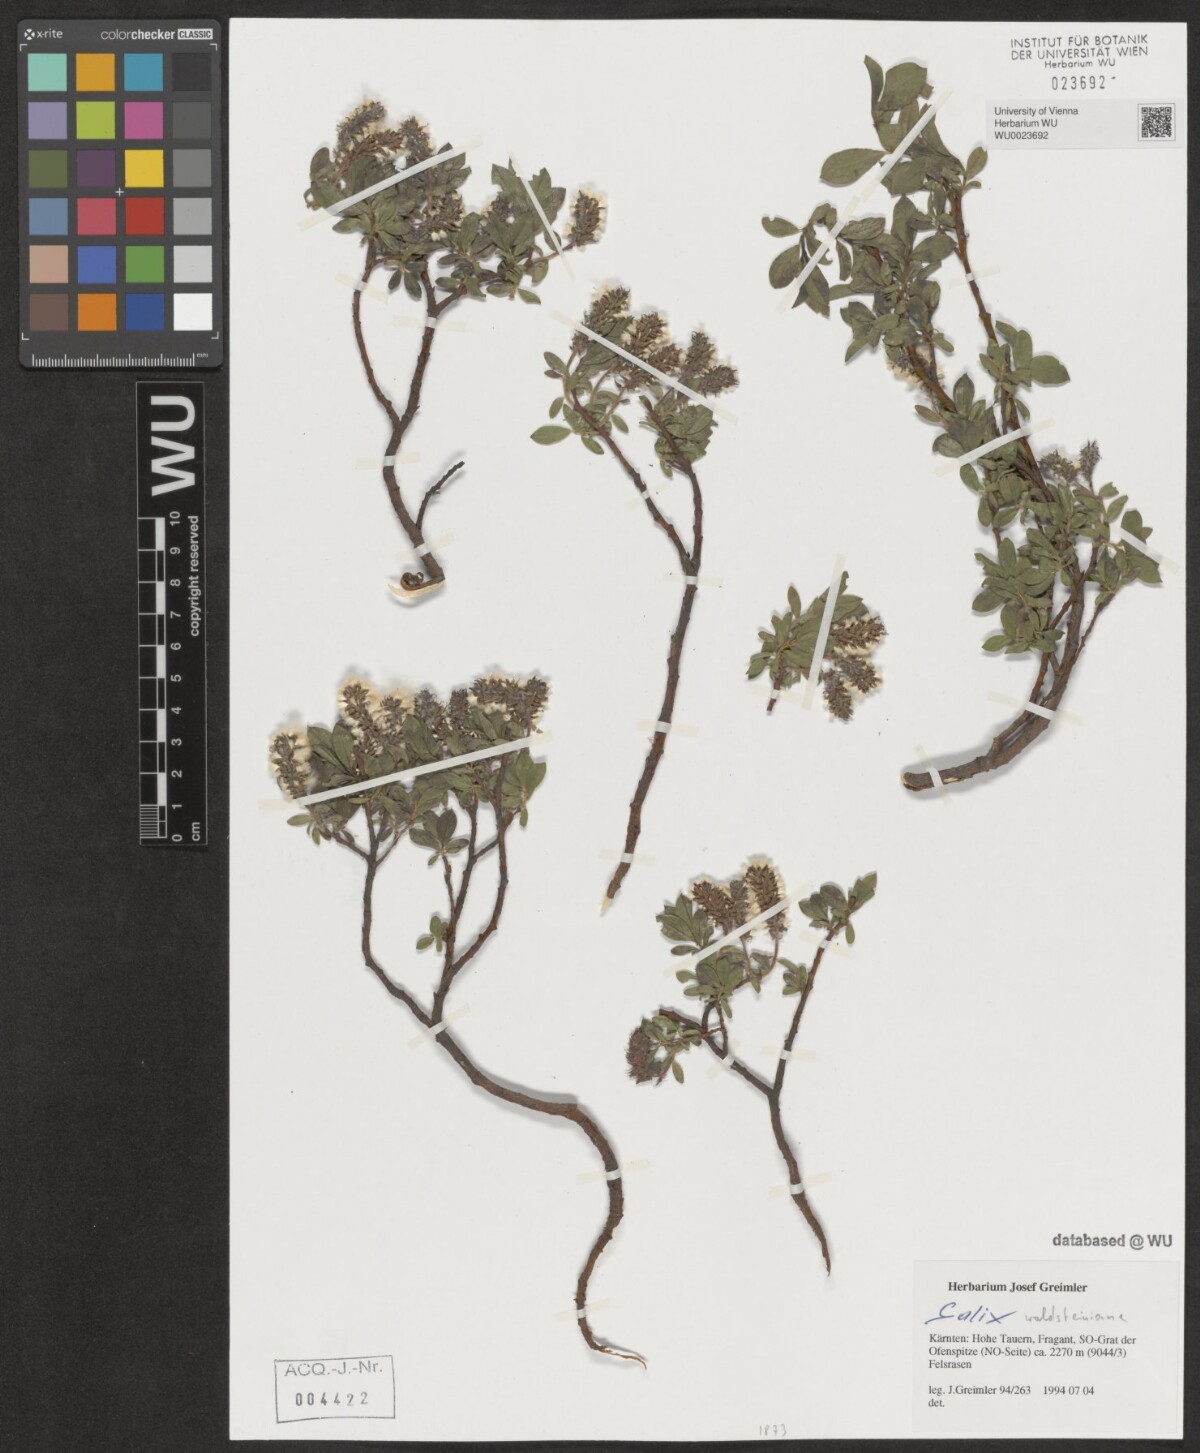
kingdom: Plantae
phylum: Tracheophyta
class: Magnoliopsida
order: Malpighiales
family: Salicaceae
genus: Salix
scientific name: Salix waldsteiniana
